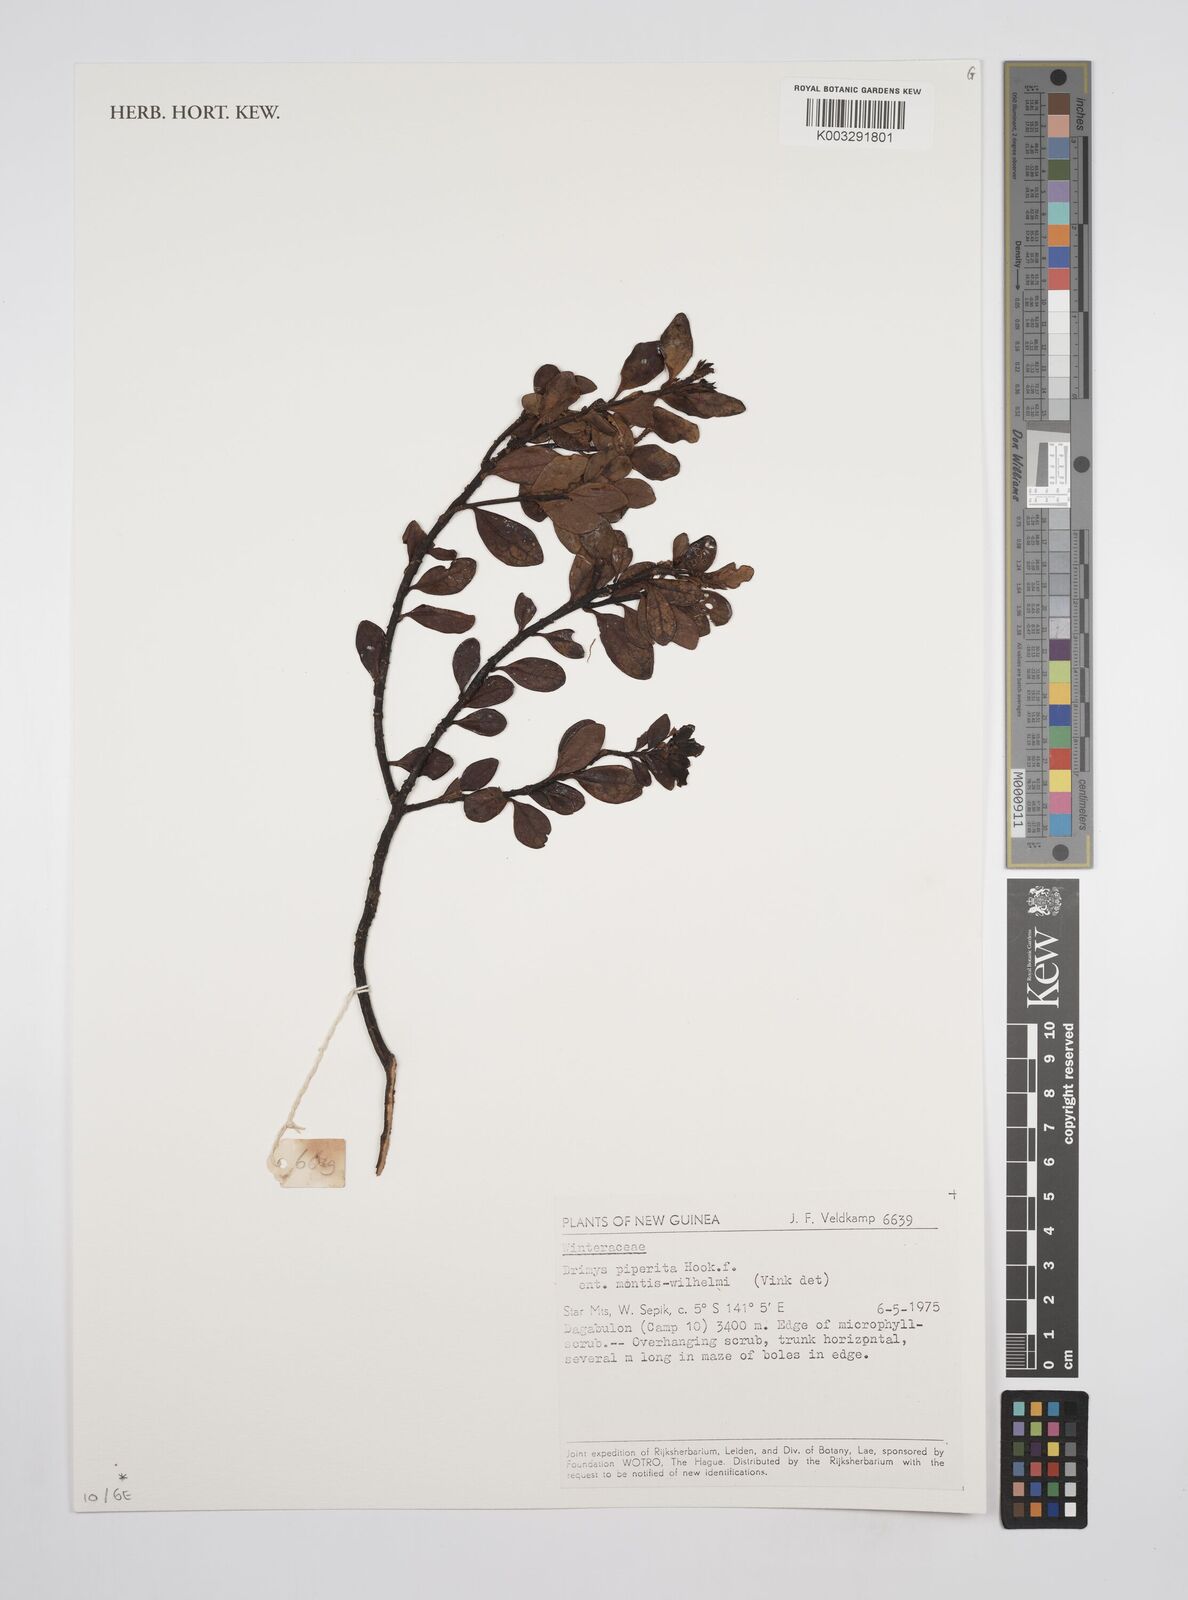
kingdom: Plantae
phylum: Tracheophyta
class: Magnoliopsida
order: Canellales
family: Winteraceae
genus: Drimys
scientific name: Drimys piperita
